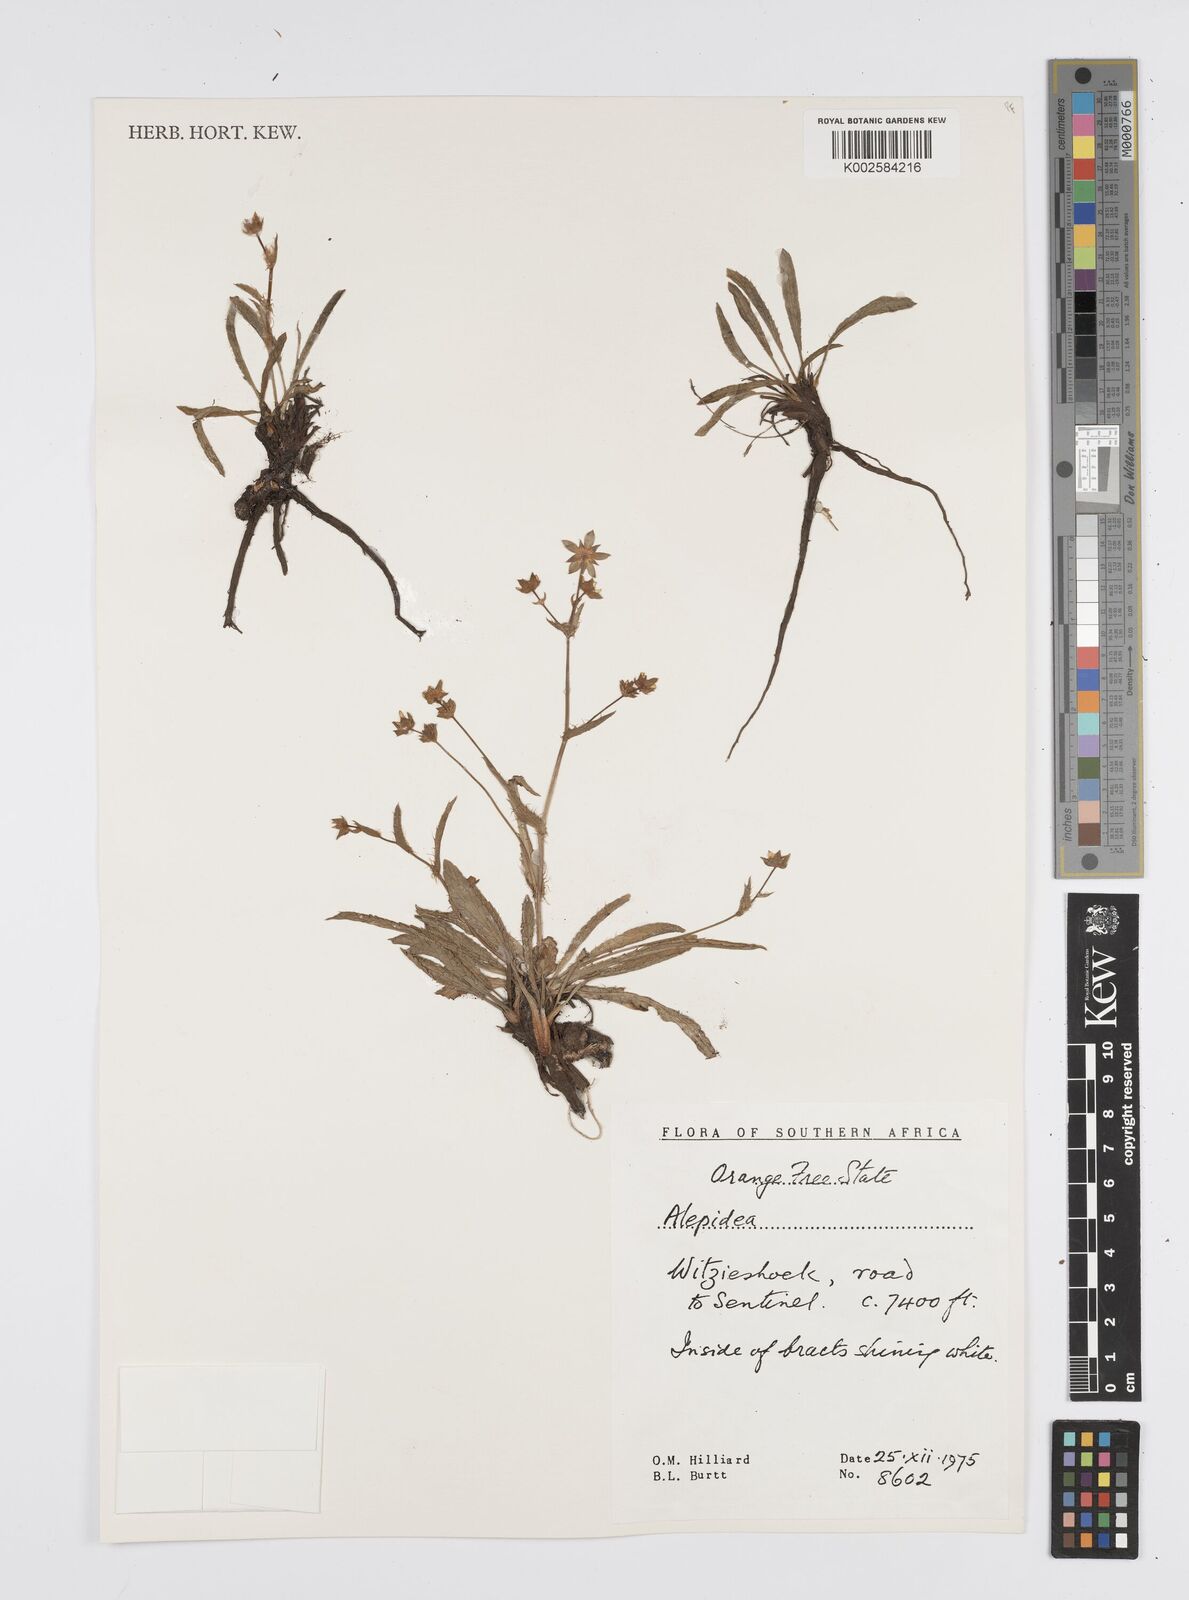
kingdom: Plantae
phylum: Tracheophyta
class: Magnoliopsida
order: Apiales
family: Apiaceae
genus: Alepidea
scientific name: Alepidea serrata
